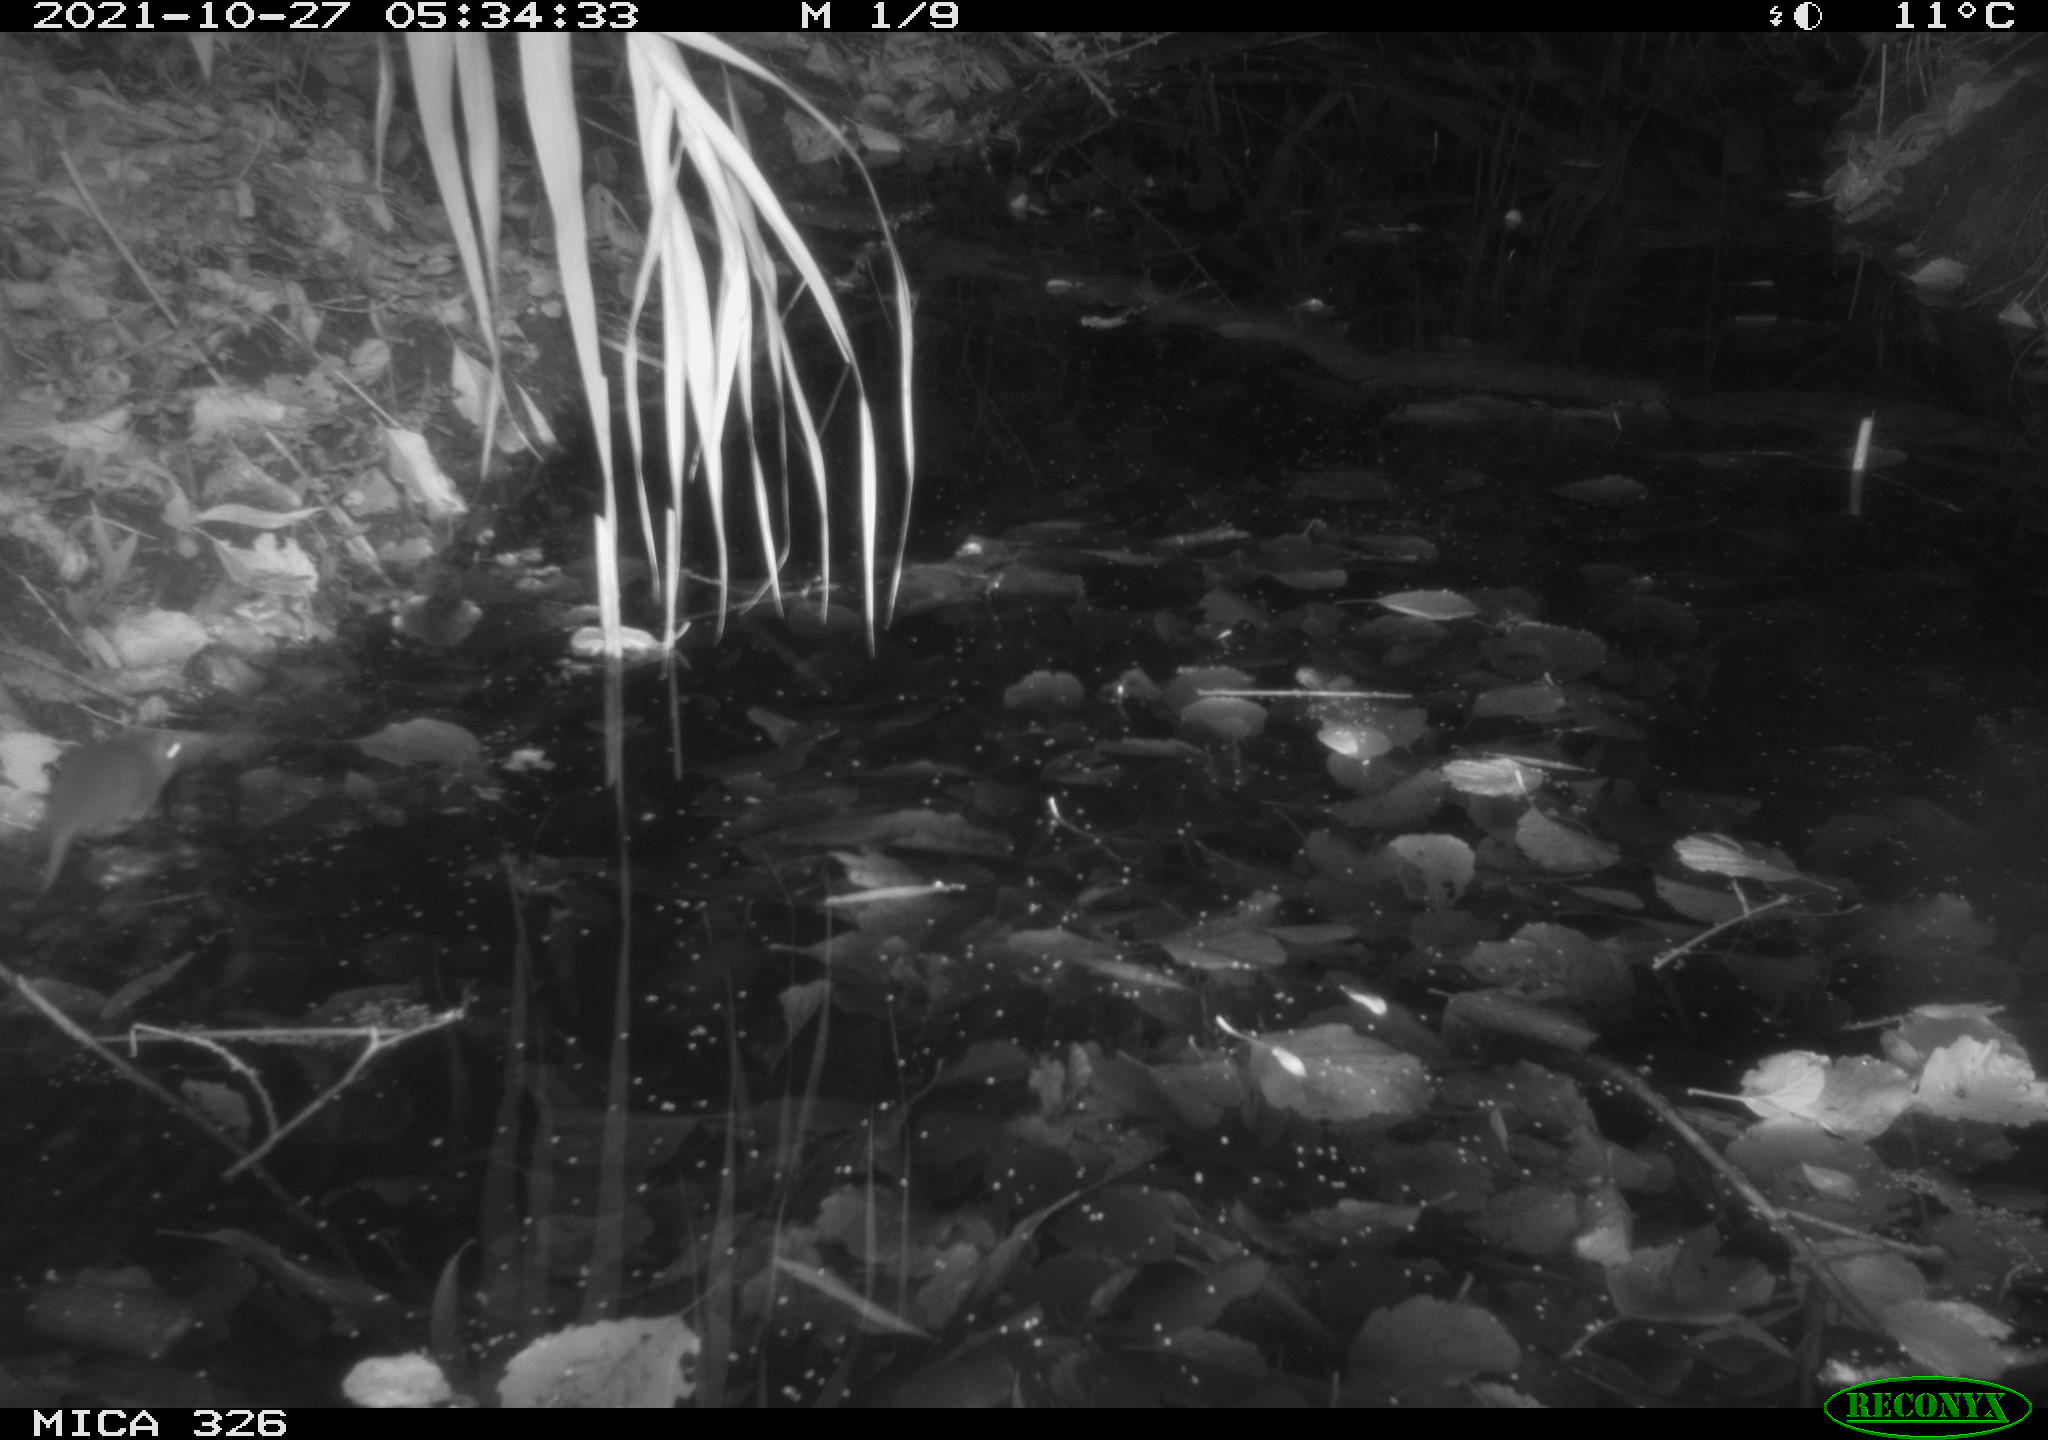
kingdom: Animalia
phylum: Chordata
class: Mammalia
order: Rodentia
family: Muridae
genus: Rattus
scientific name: Rattus norvegicus
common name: Brown rat
